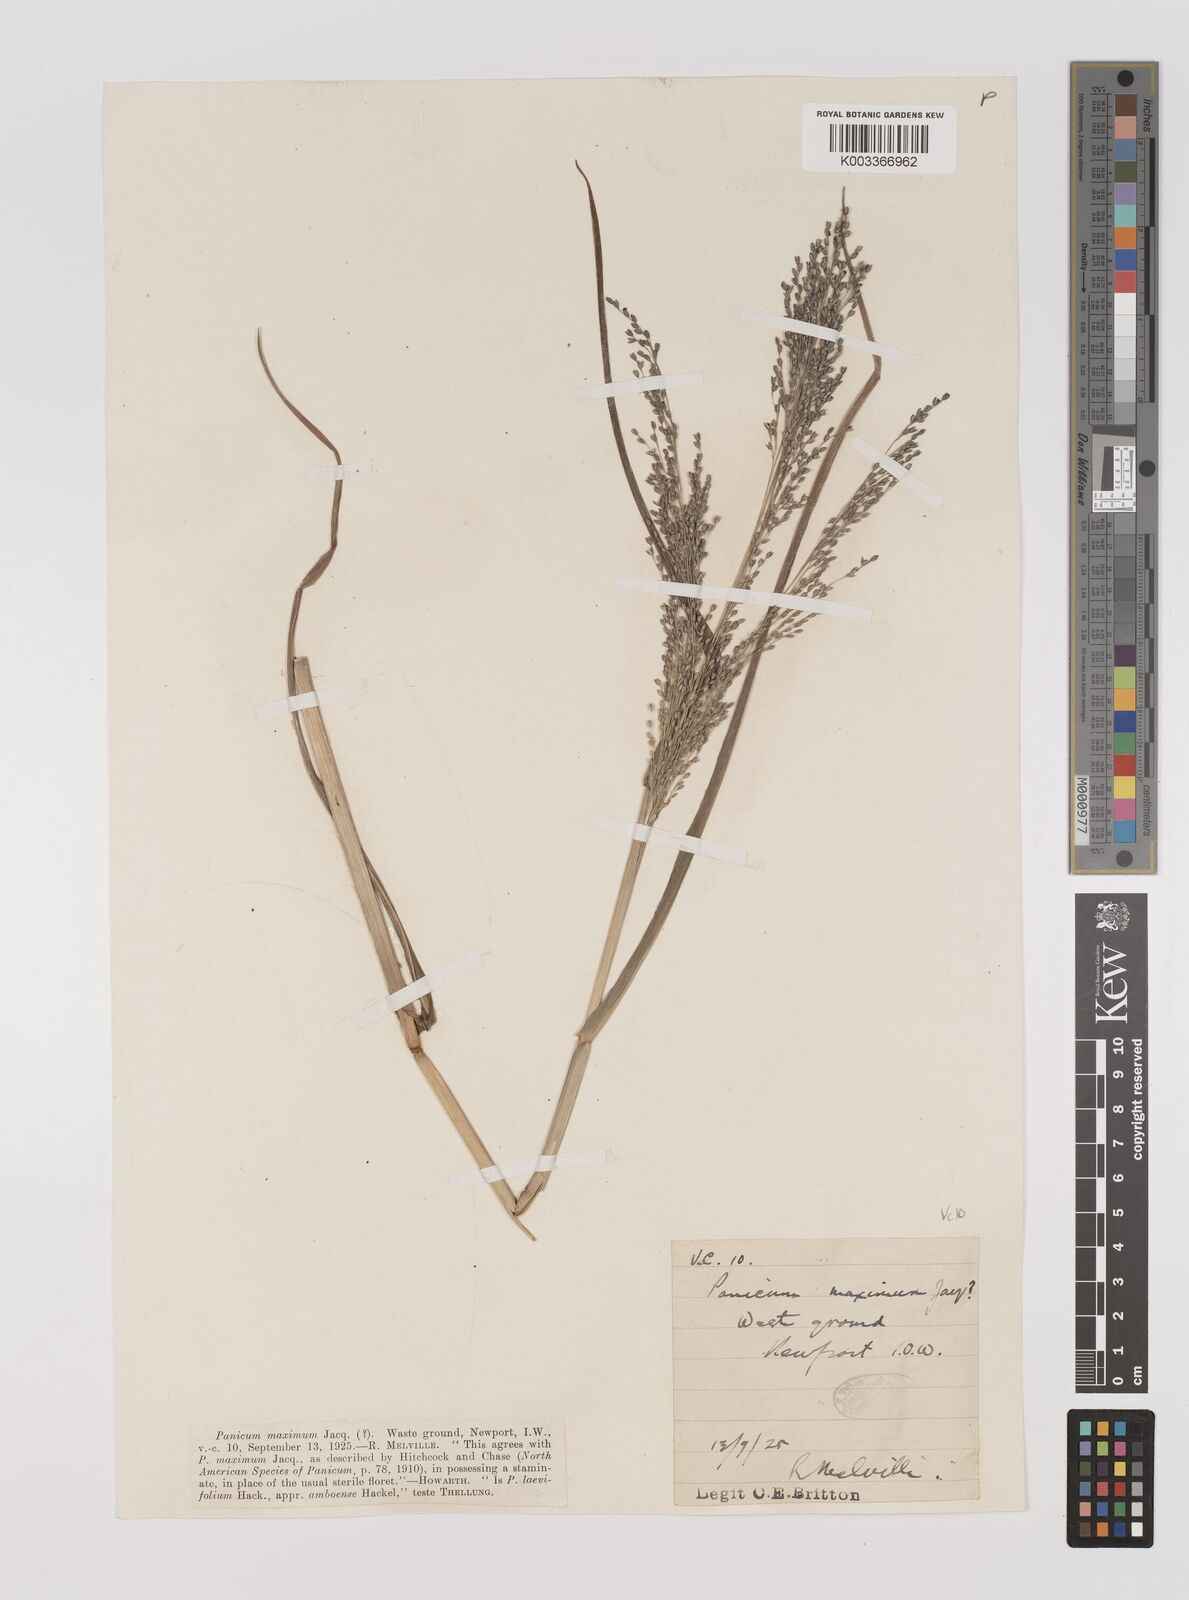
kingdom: Plantae
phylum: Tracheophyta
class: Liliopsida
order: Poales
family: Poaceae
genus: Panicum
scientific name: Panicum schinzii
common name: Sweet grass
